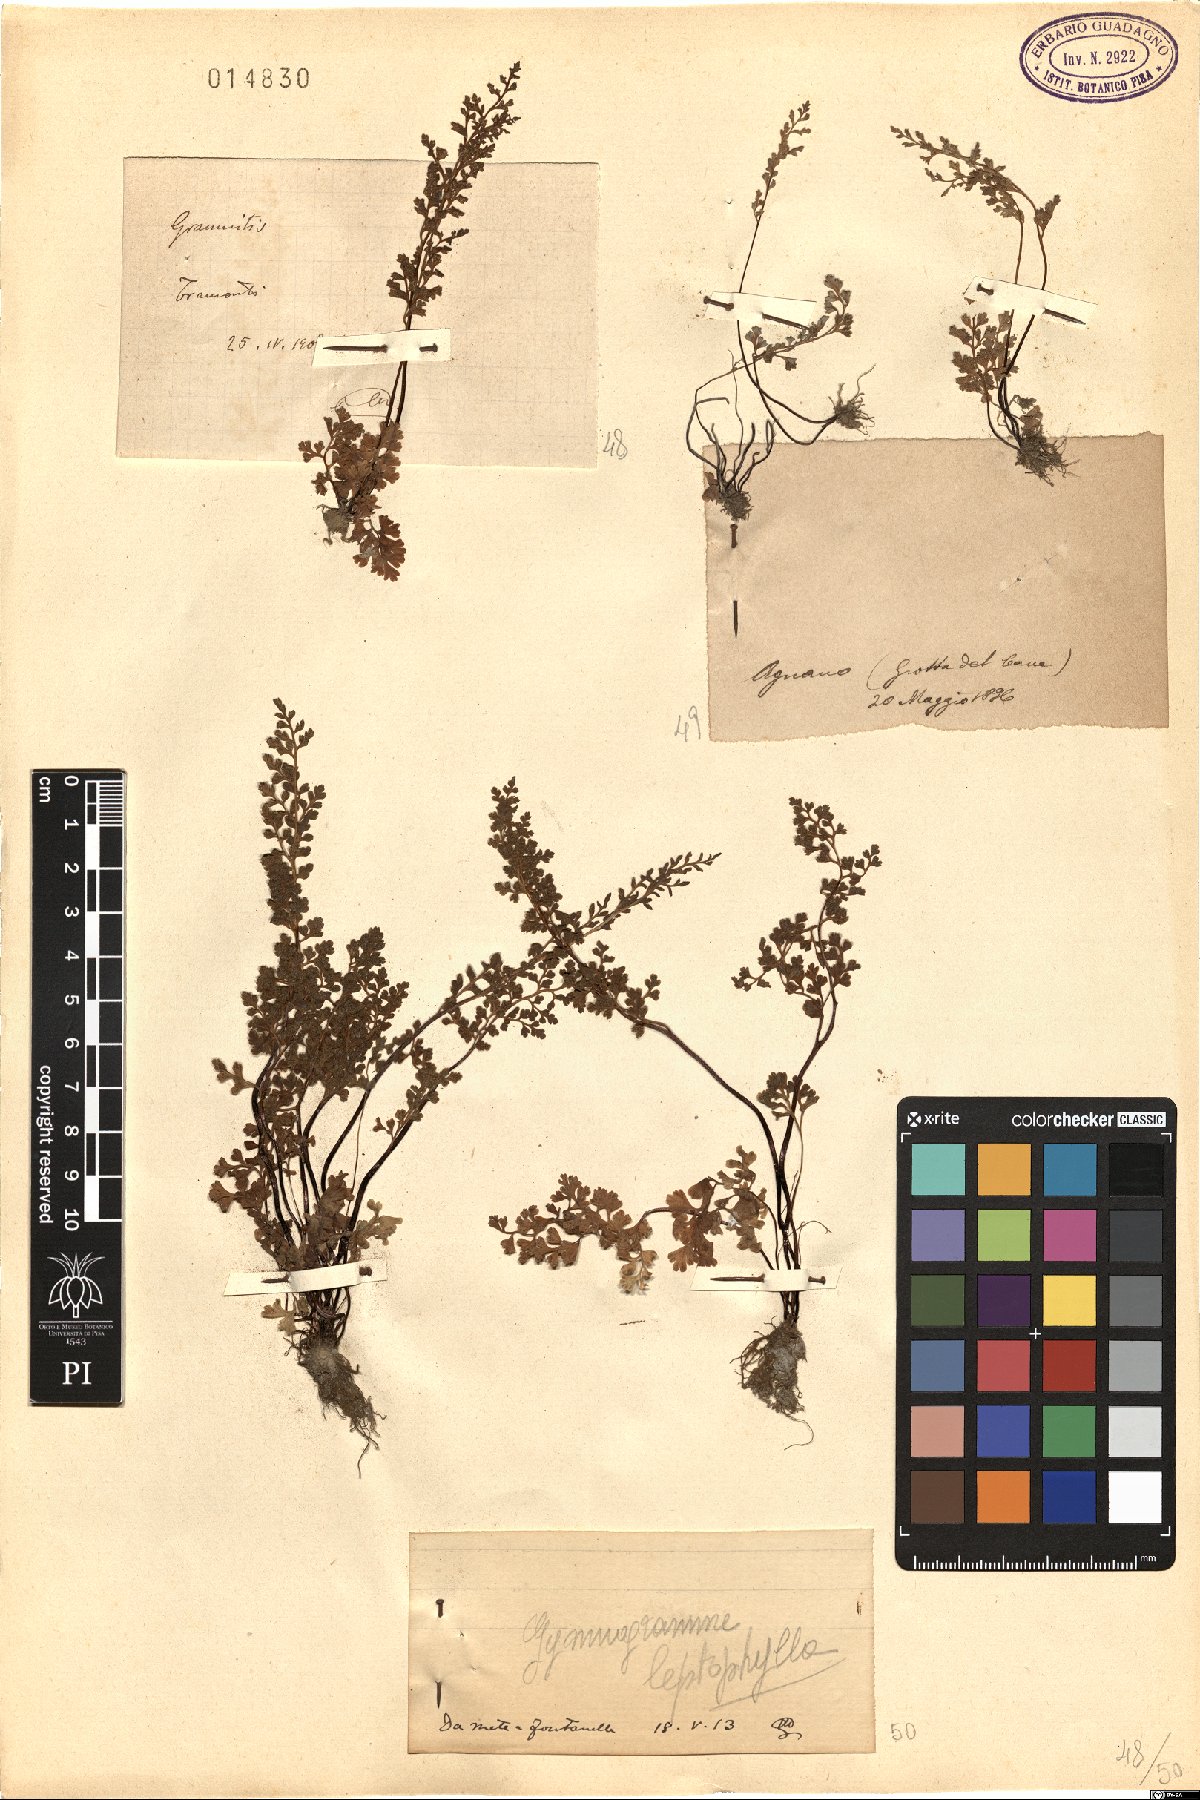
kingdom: Plantae
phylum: Tracheophyta
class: Polypodiopsida
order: Polypodiales
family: Pteridaceae
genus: Anogramma
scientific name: Anogramma leptophylla
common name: Jersey fern
